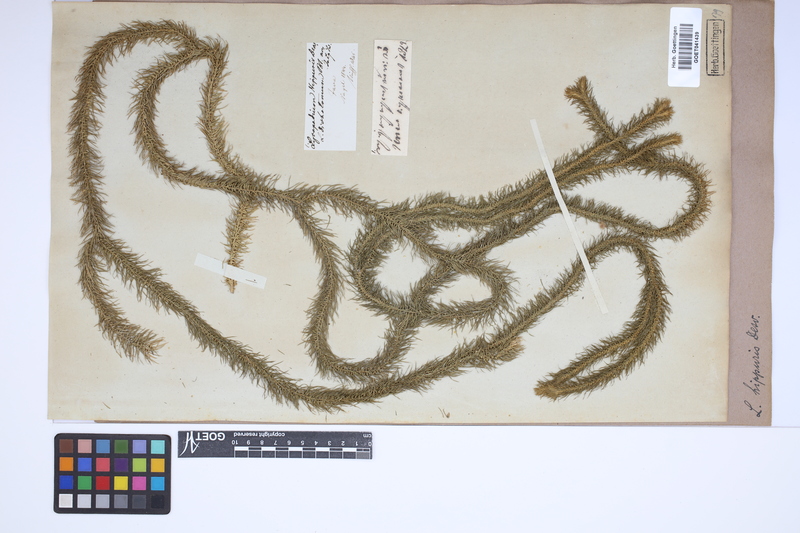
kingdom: Plantae
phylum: Tracheophyta
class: Lycopodiopsida
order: Lycopodiales
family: Lycopodiaceae
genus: Phlegmariurus
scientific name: Phlegmariurus hippuris
